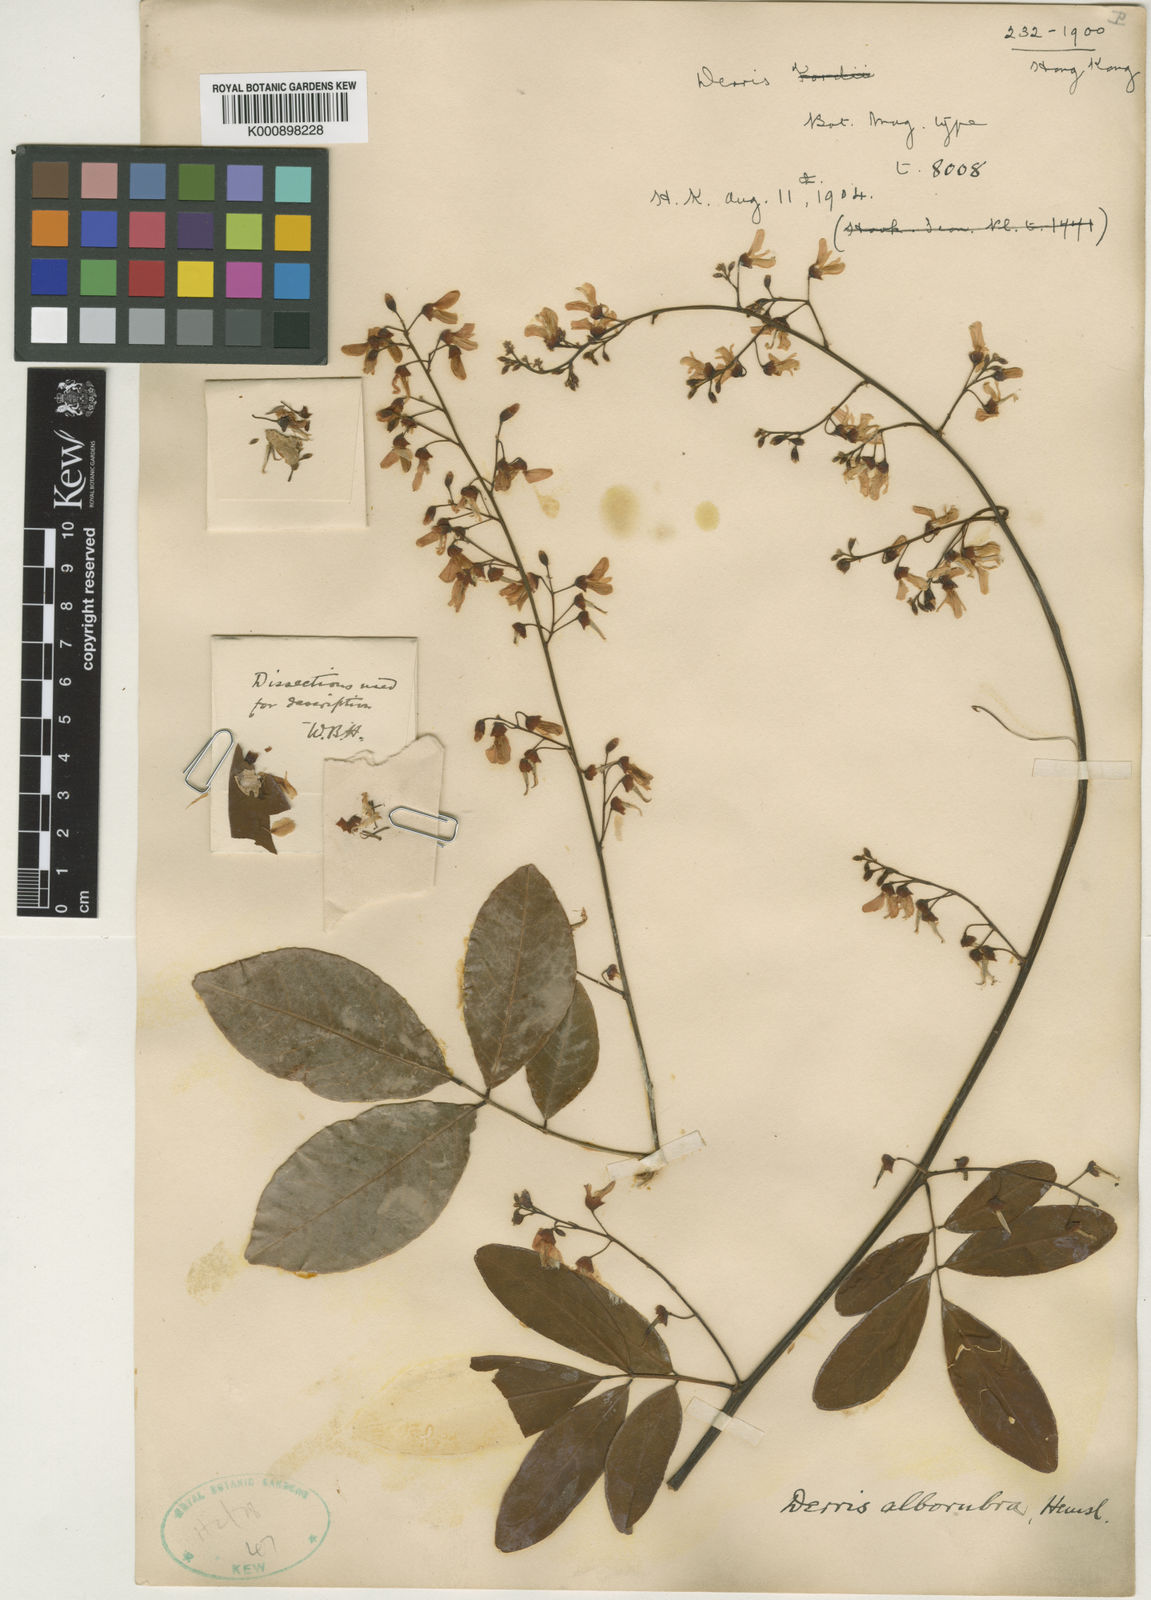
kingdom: Plantae
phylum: Tracheophyta
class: Magnoliopsida
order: Fabales
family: Fabaceae
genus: Derris
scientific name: Derris alborubra
